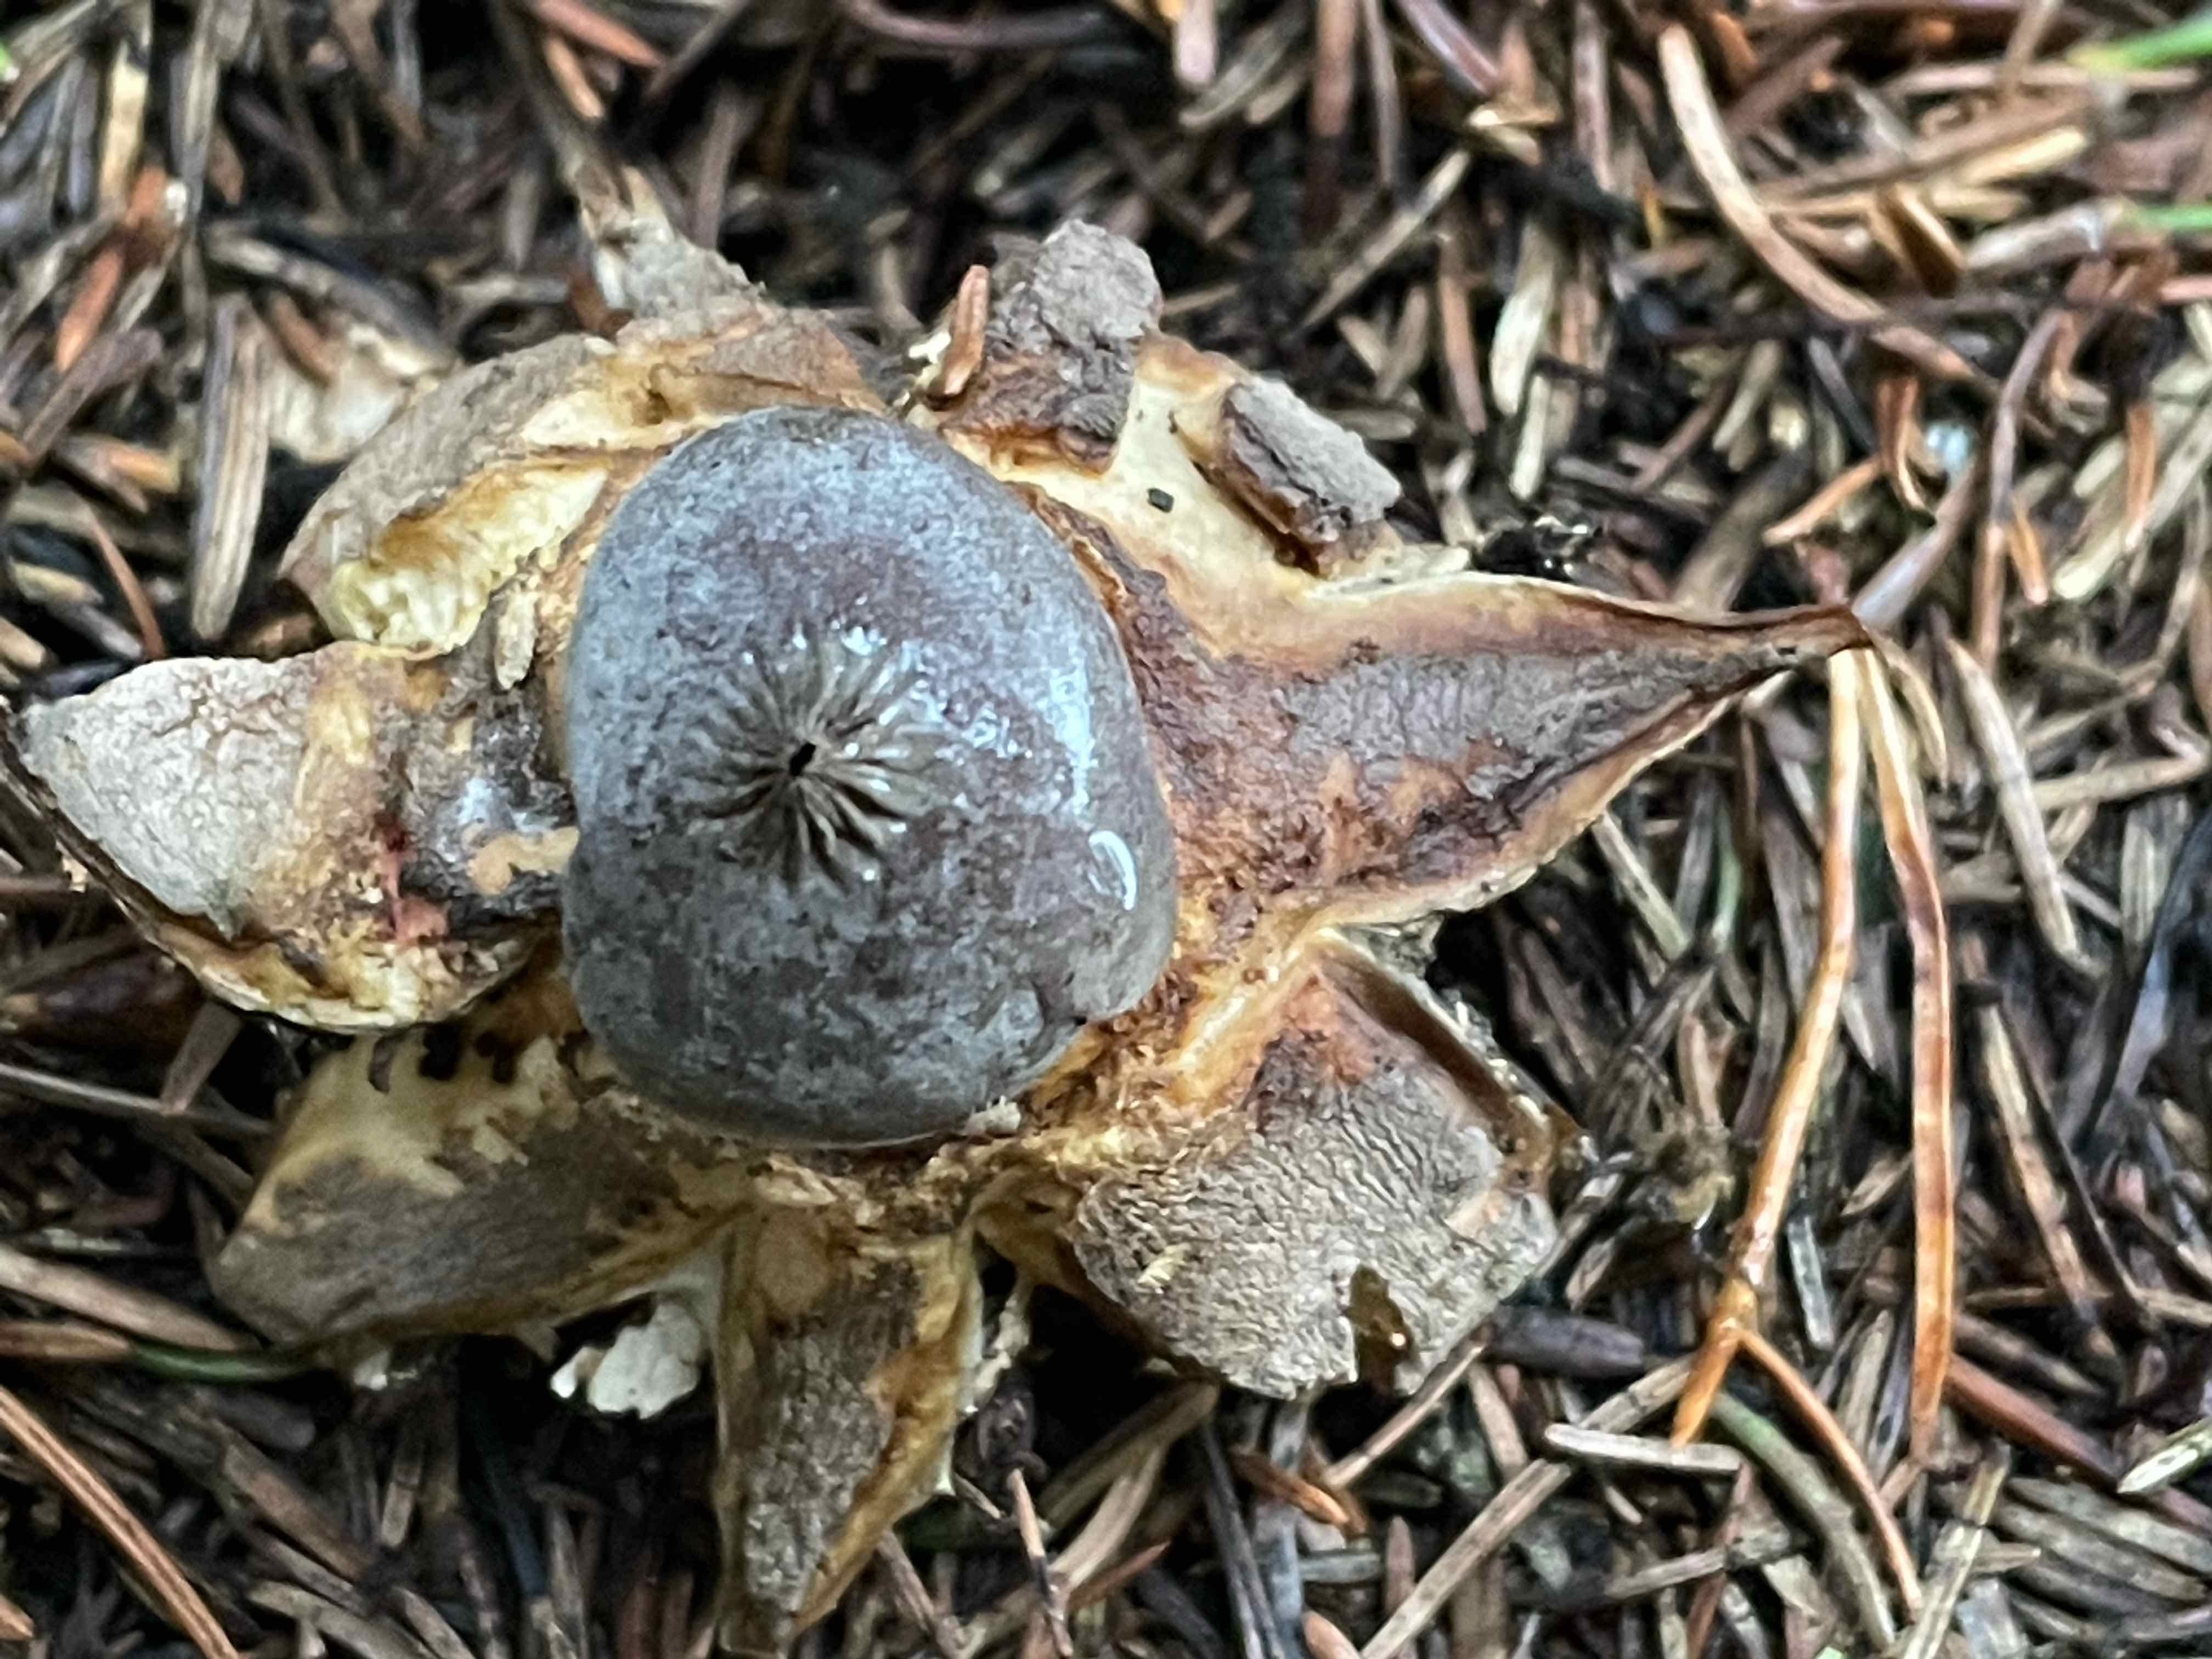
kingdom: Fungi
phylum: Basidiomycota
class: Agaricomycetes
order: Geastrales
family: Geastraceae
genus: Geastrum
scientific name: Geastrum pectinatum
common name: stilket stjernebold
